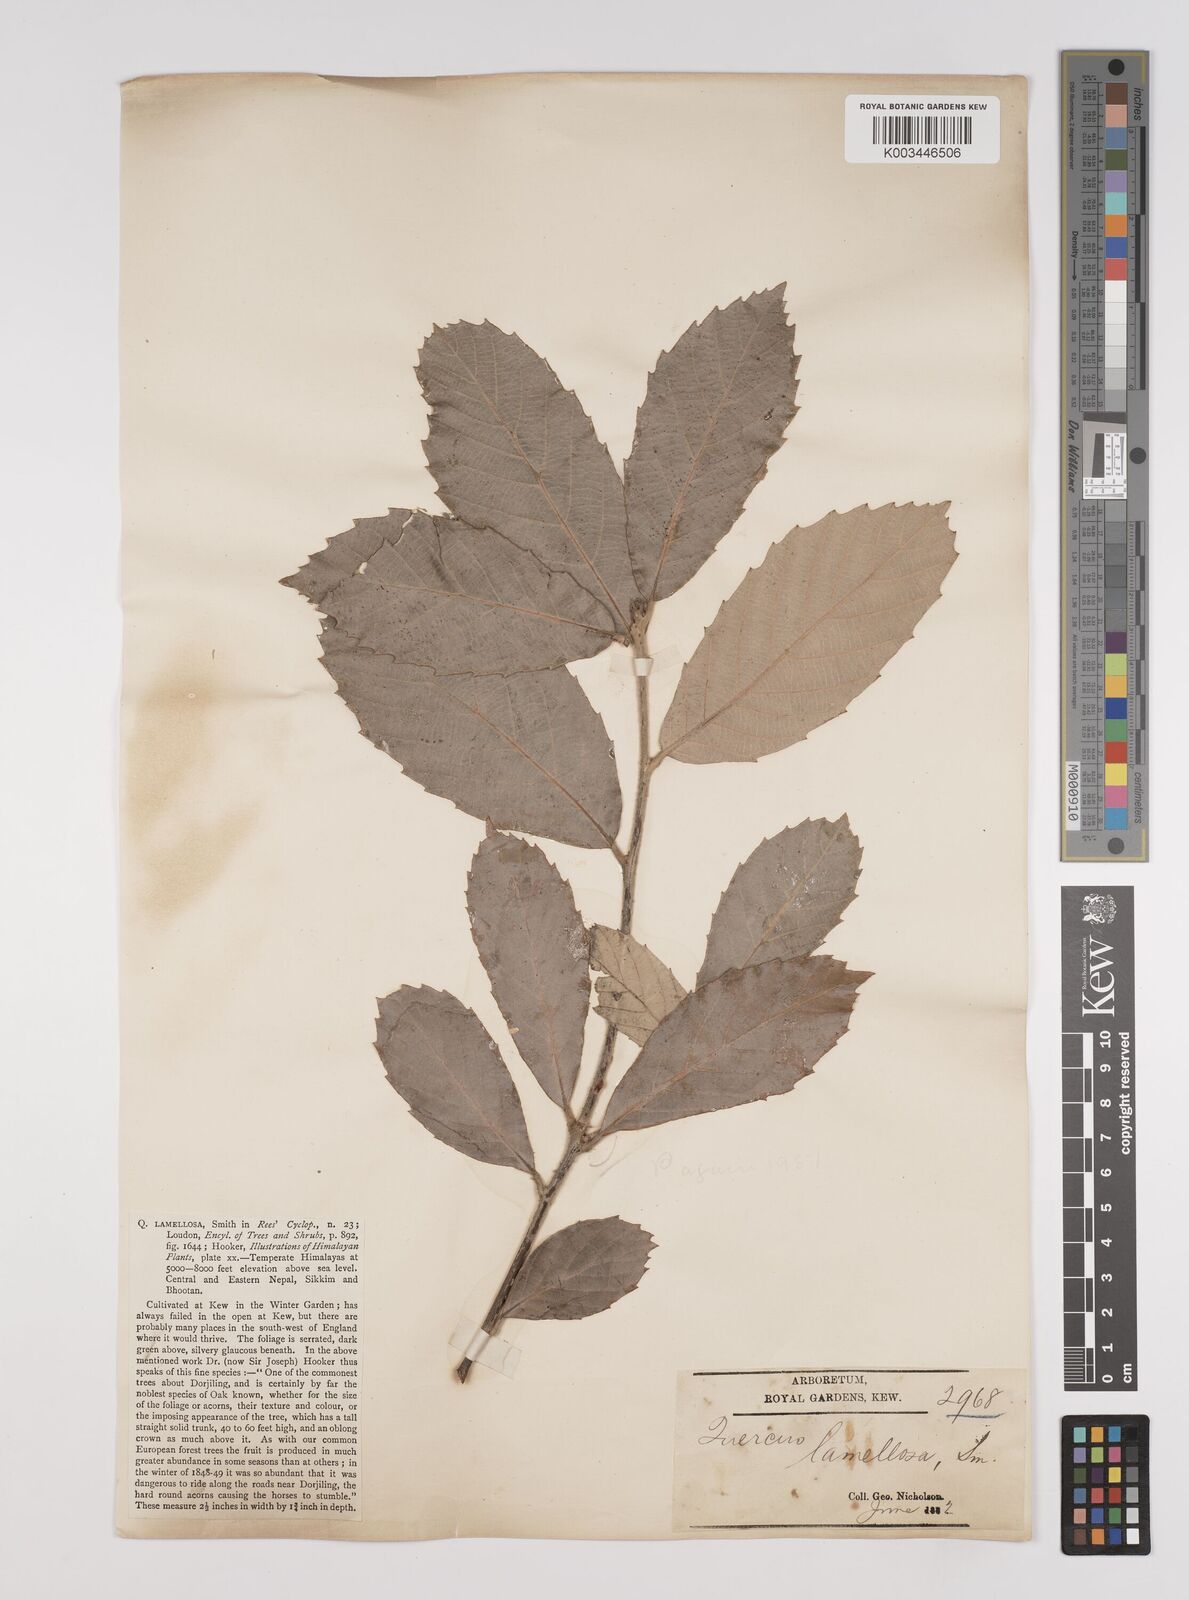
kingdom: Plantae
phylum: Tracheophyta
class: Magnoliopsida
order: Fagales
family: Fagaceae
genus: Quercus
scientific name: Quercus lamellosa
